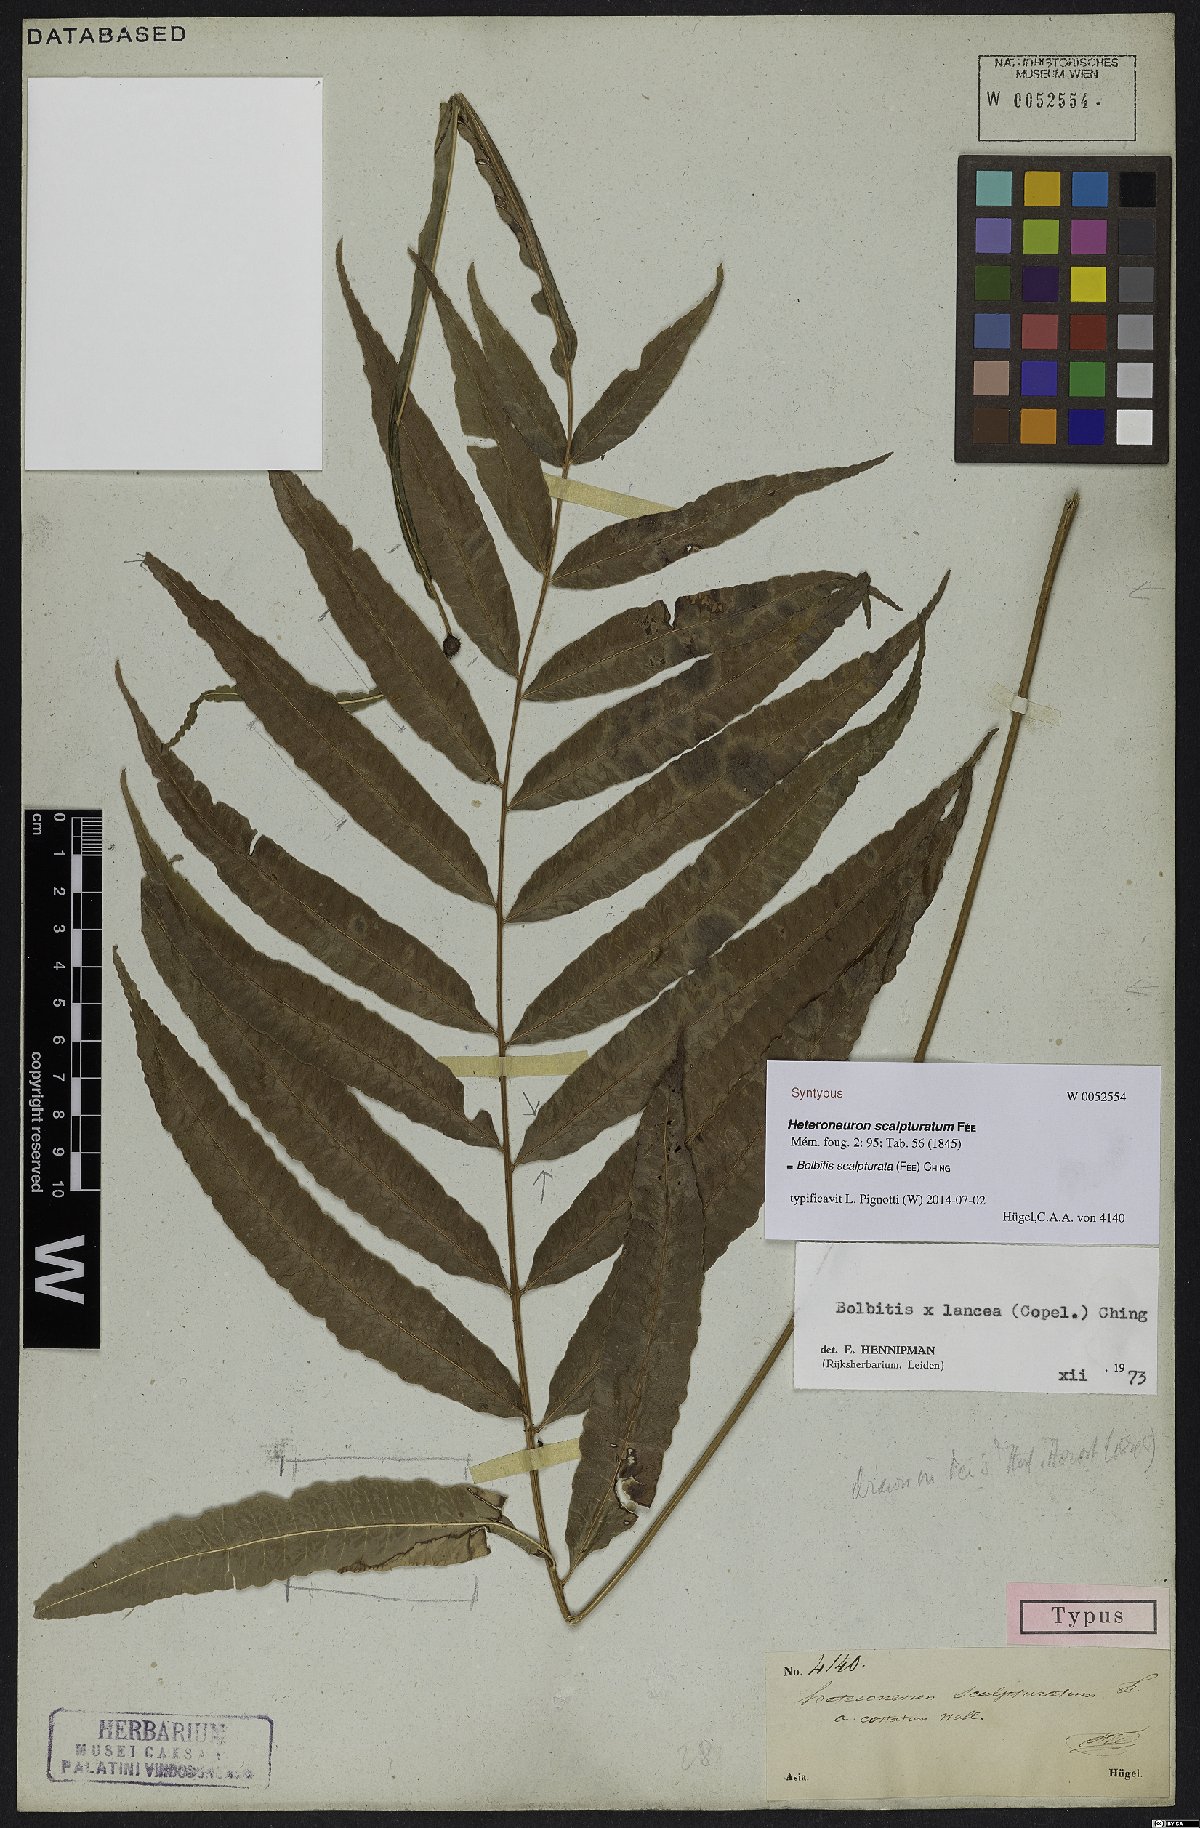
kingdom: Plantae
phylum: Tracheophyta
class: Polypodiopsida
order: Polypodiales
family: Dryopteridaceae
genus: Bolbitis
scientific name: Bolbitis scalpturata
